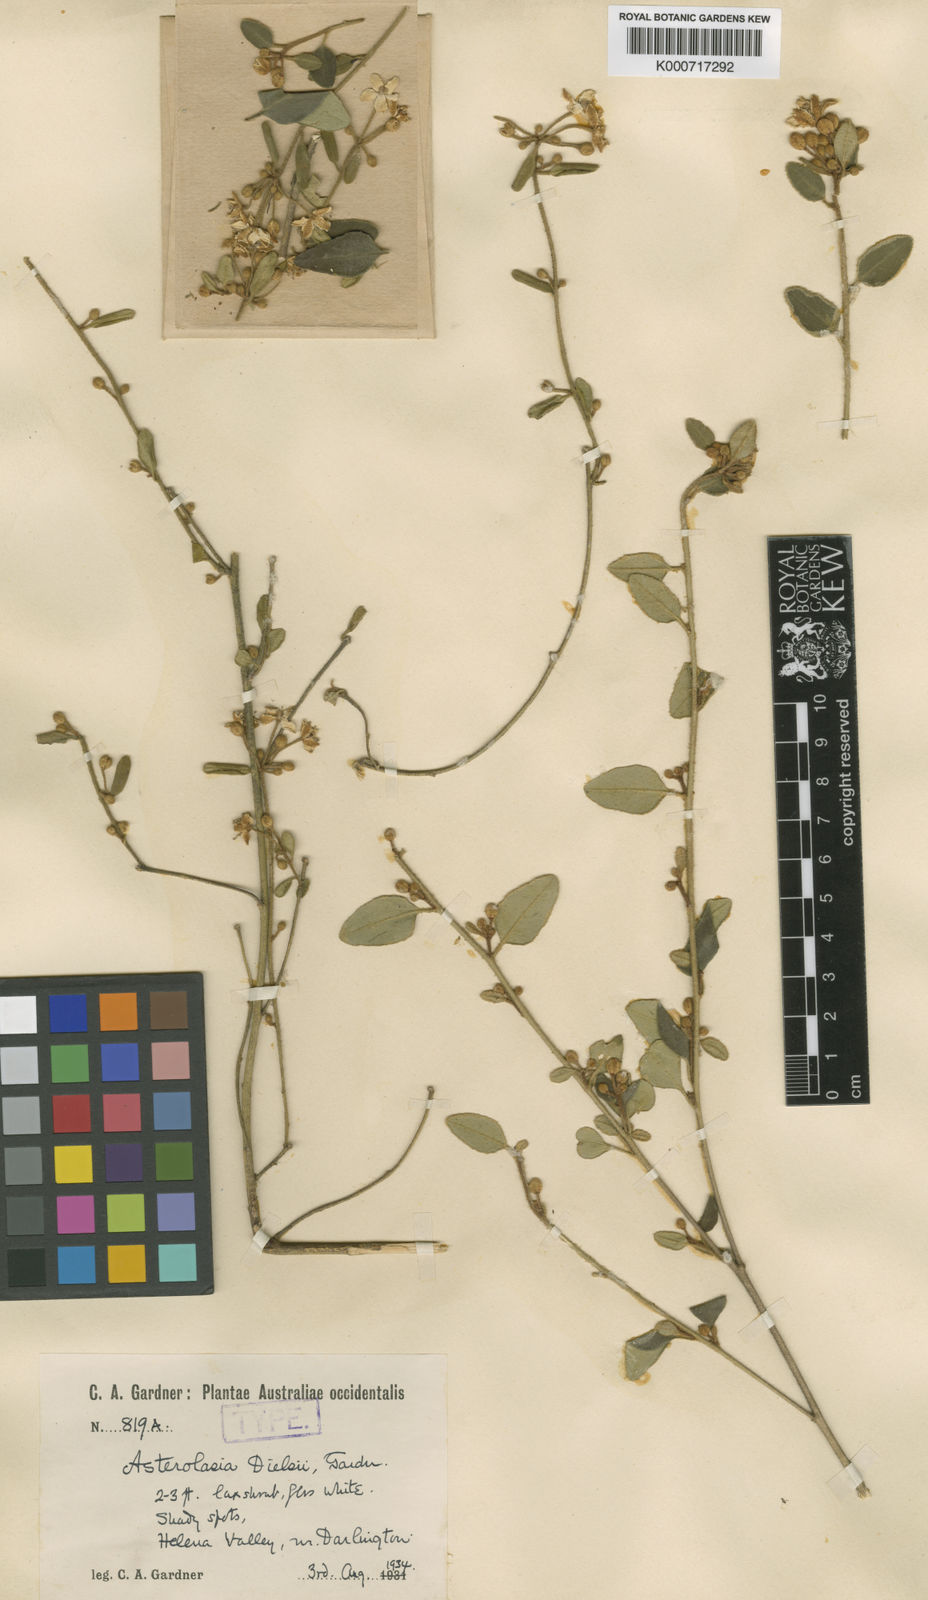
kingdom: Plantae
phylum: Tracheophyta
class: Magnoliopsida
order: Sapindales
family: Rutaceae
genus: Asterolasia
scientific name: Asterolasia pallida
